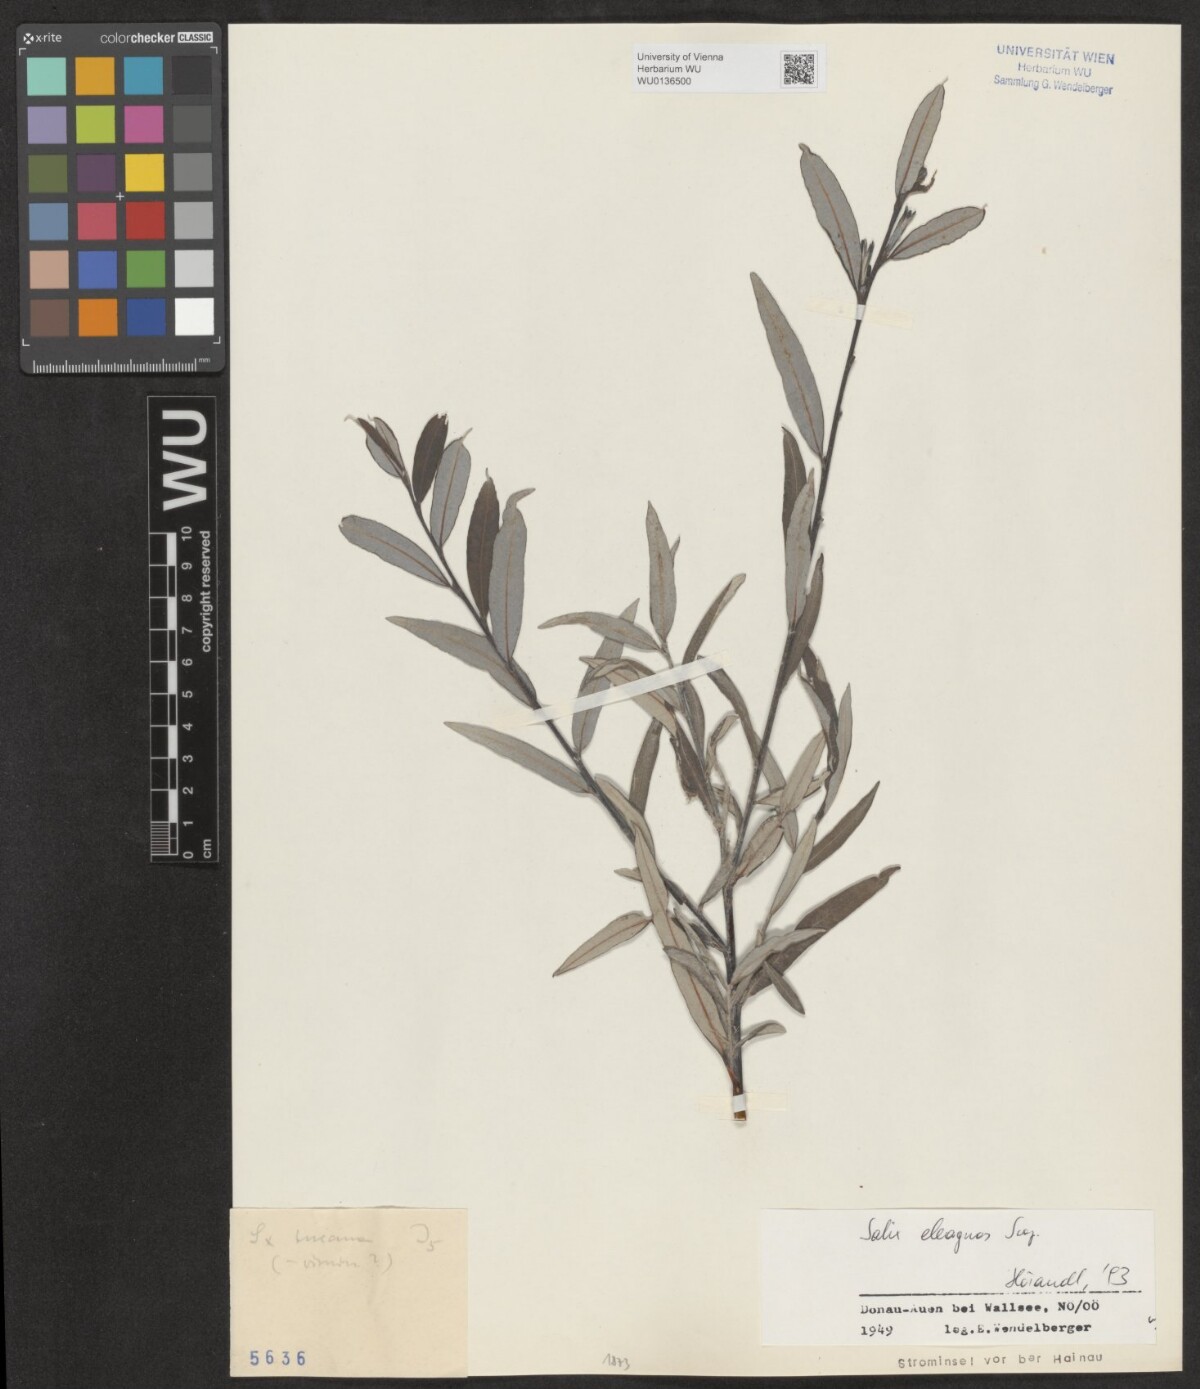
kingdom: Plantae
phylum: Tracheophyta
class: Magnoliopsida
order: Malpighiales
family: Salicaceae
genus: Salix
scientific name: Salix eleagnos
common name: Elaeagnus willow
